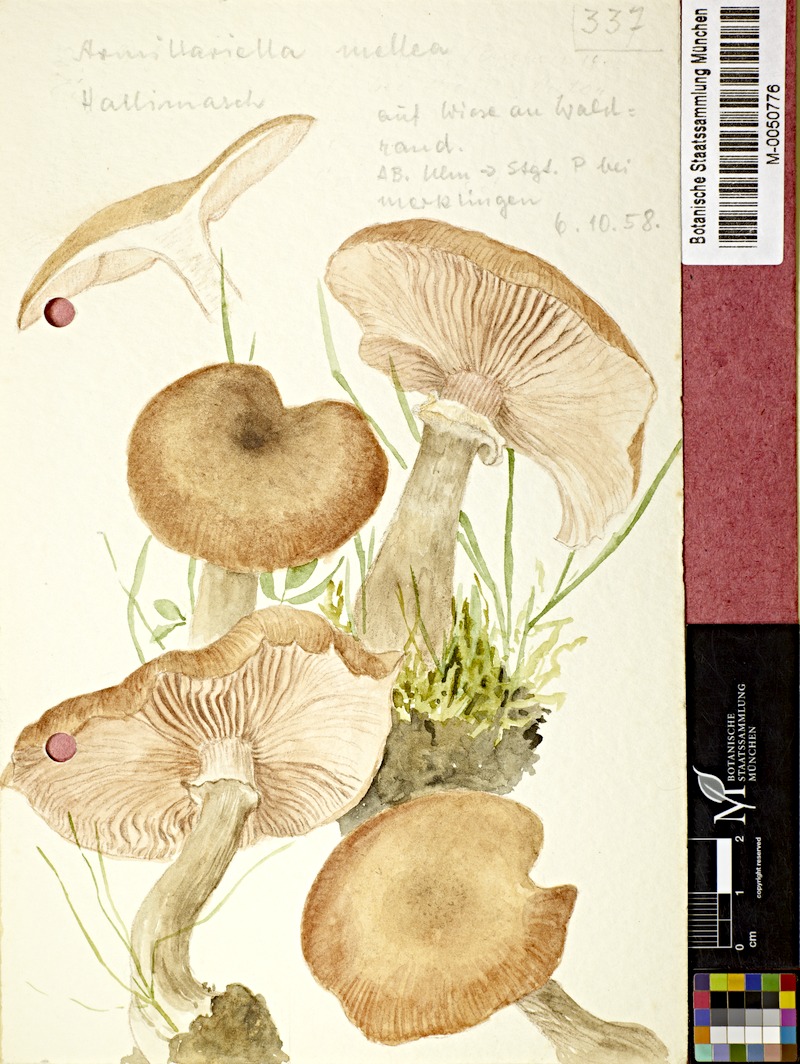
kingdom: Fungi
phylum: Basidiomycota
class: Agaricomycetes
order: Agaricales
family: Physalacriaceae
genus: Armillaria
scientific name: Armillaria mellea
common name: Honey fungus
